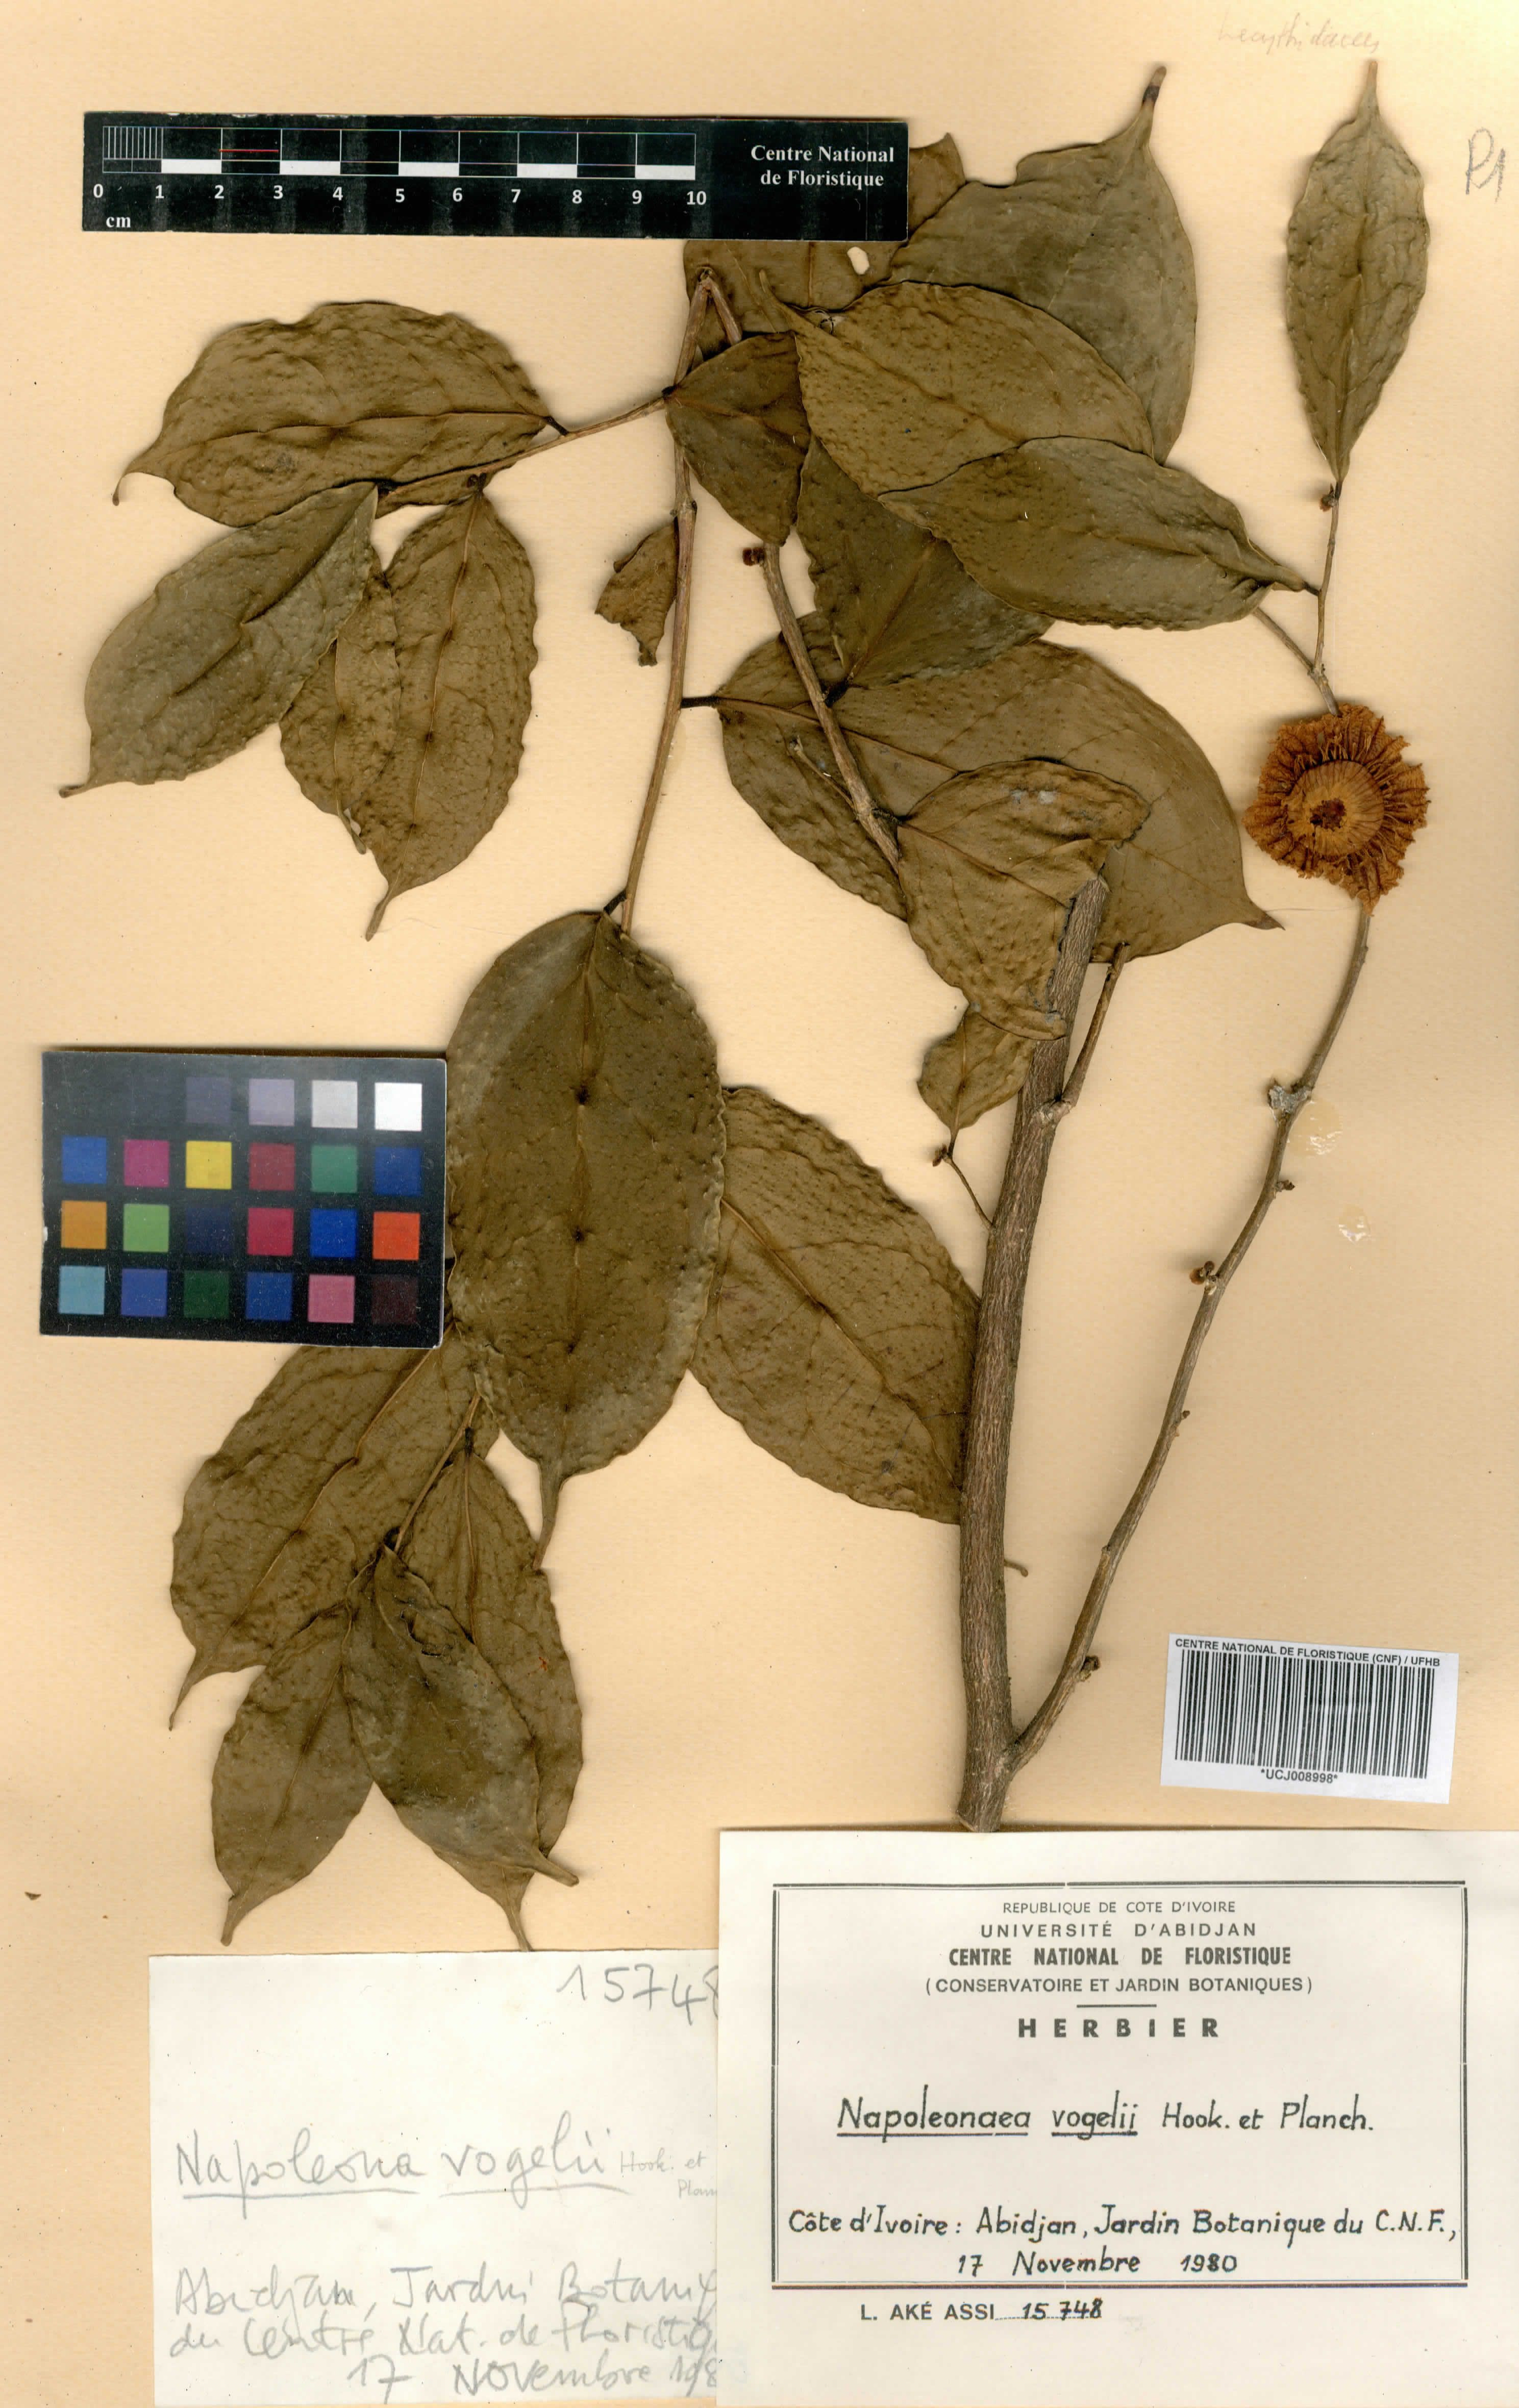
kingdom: Plantae
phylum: Tracheophyta
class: Magnoliopsida
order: Ericales
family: Lecythidaceae
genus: Napoleonaea
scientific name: Napoleonaea vogelii
